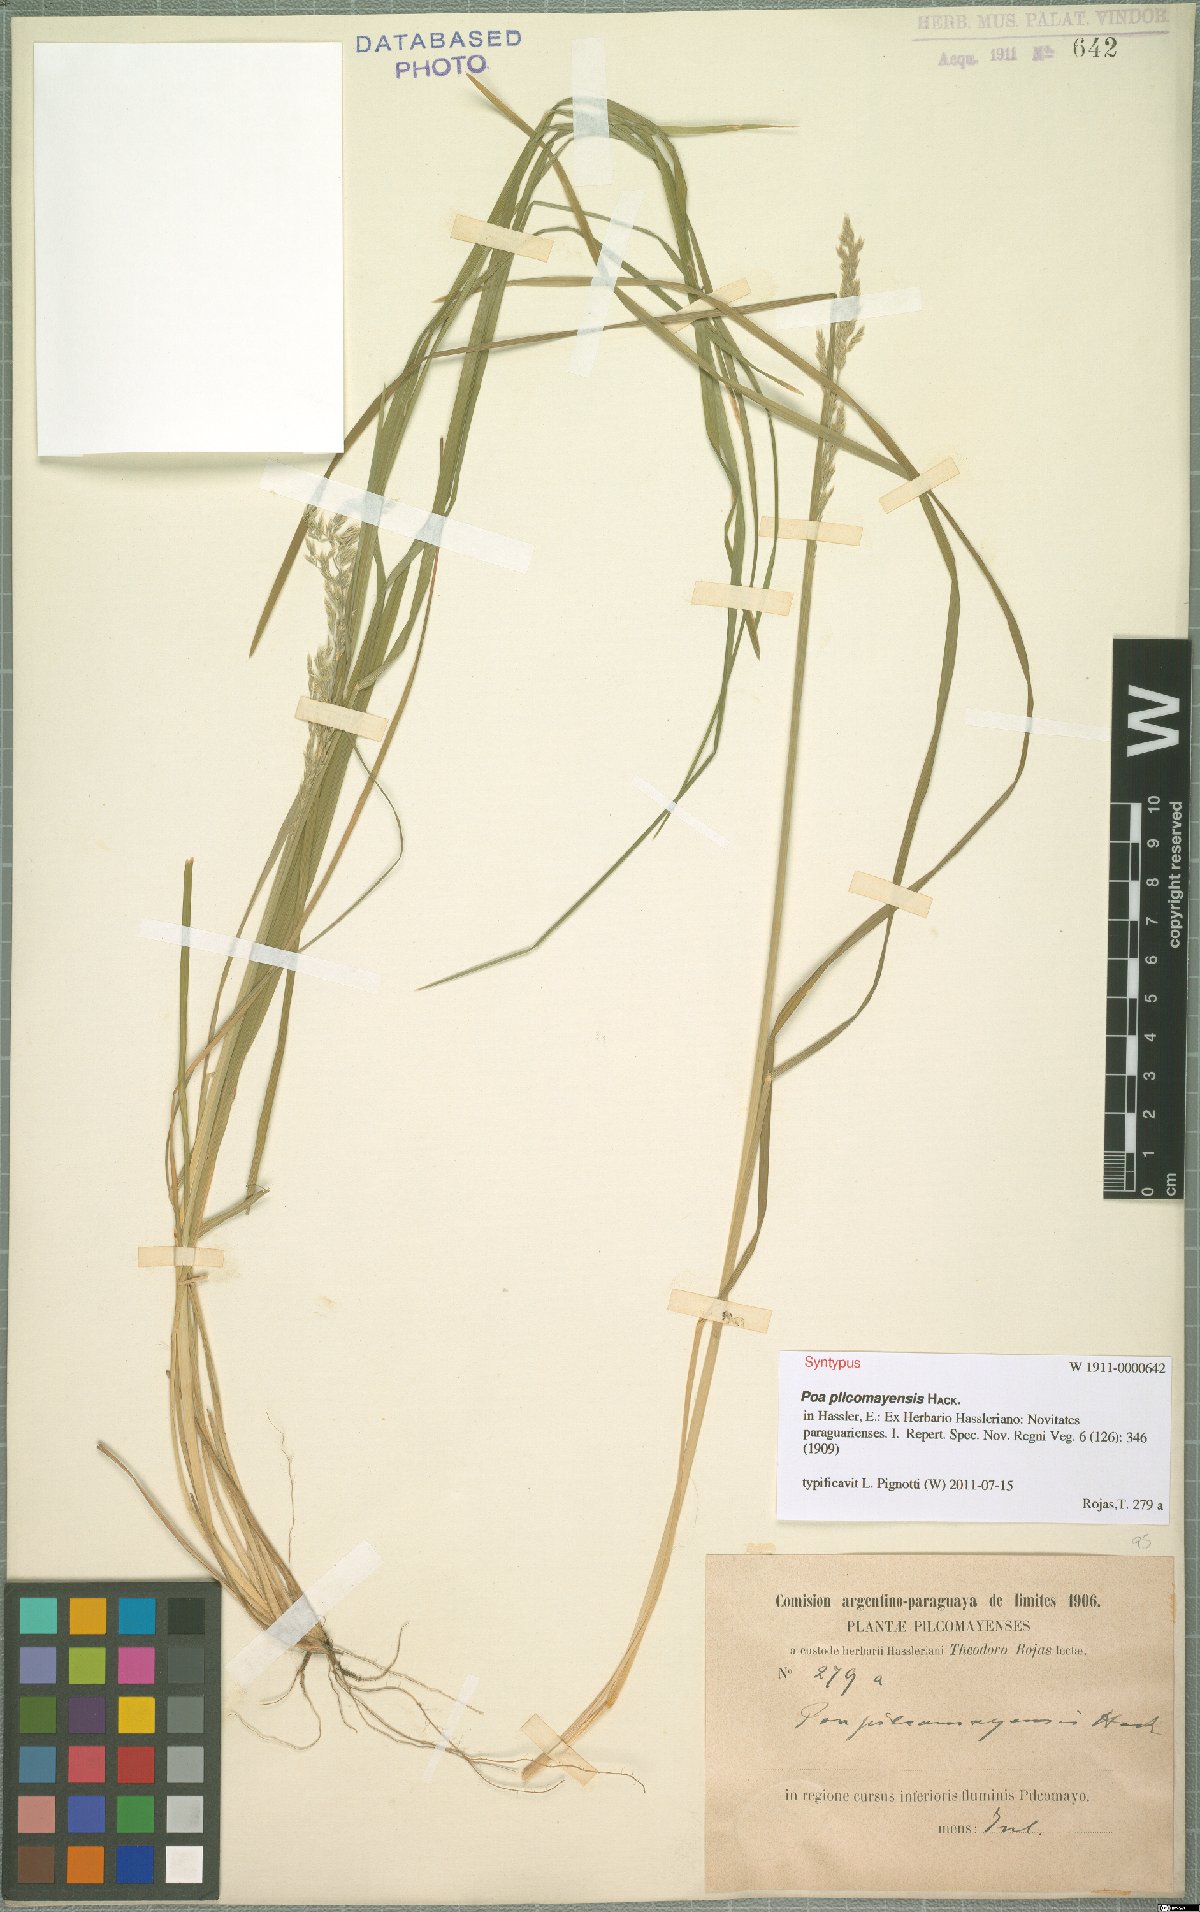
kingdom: Plantae
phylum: Tracheophyta
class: Liliopsida
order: Poales
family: Poaceae
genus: Poa
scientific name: Poa pilcomayensis
